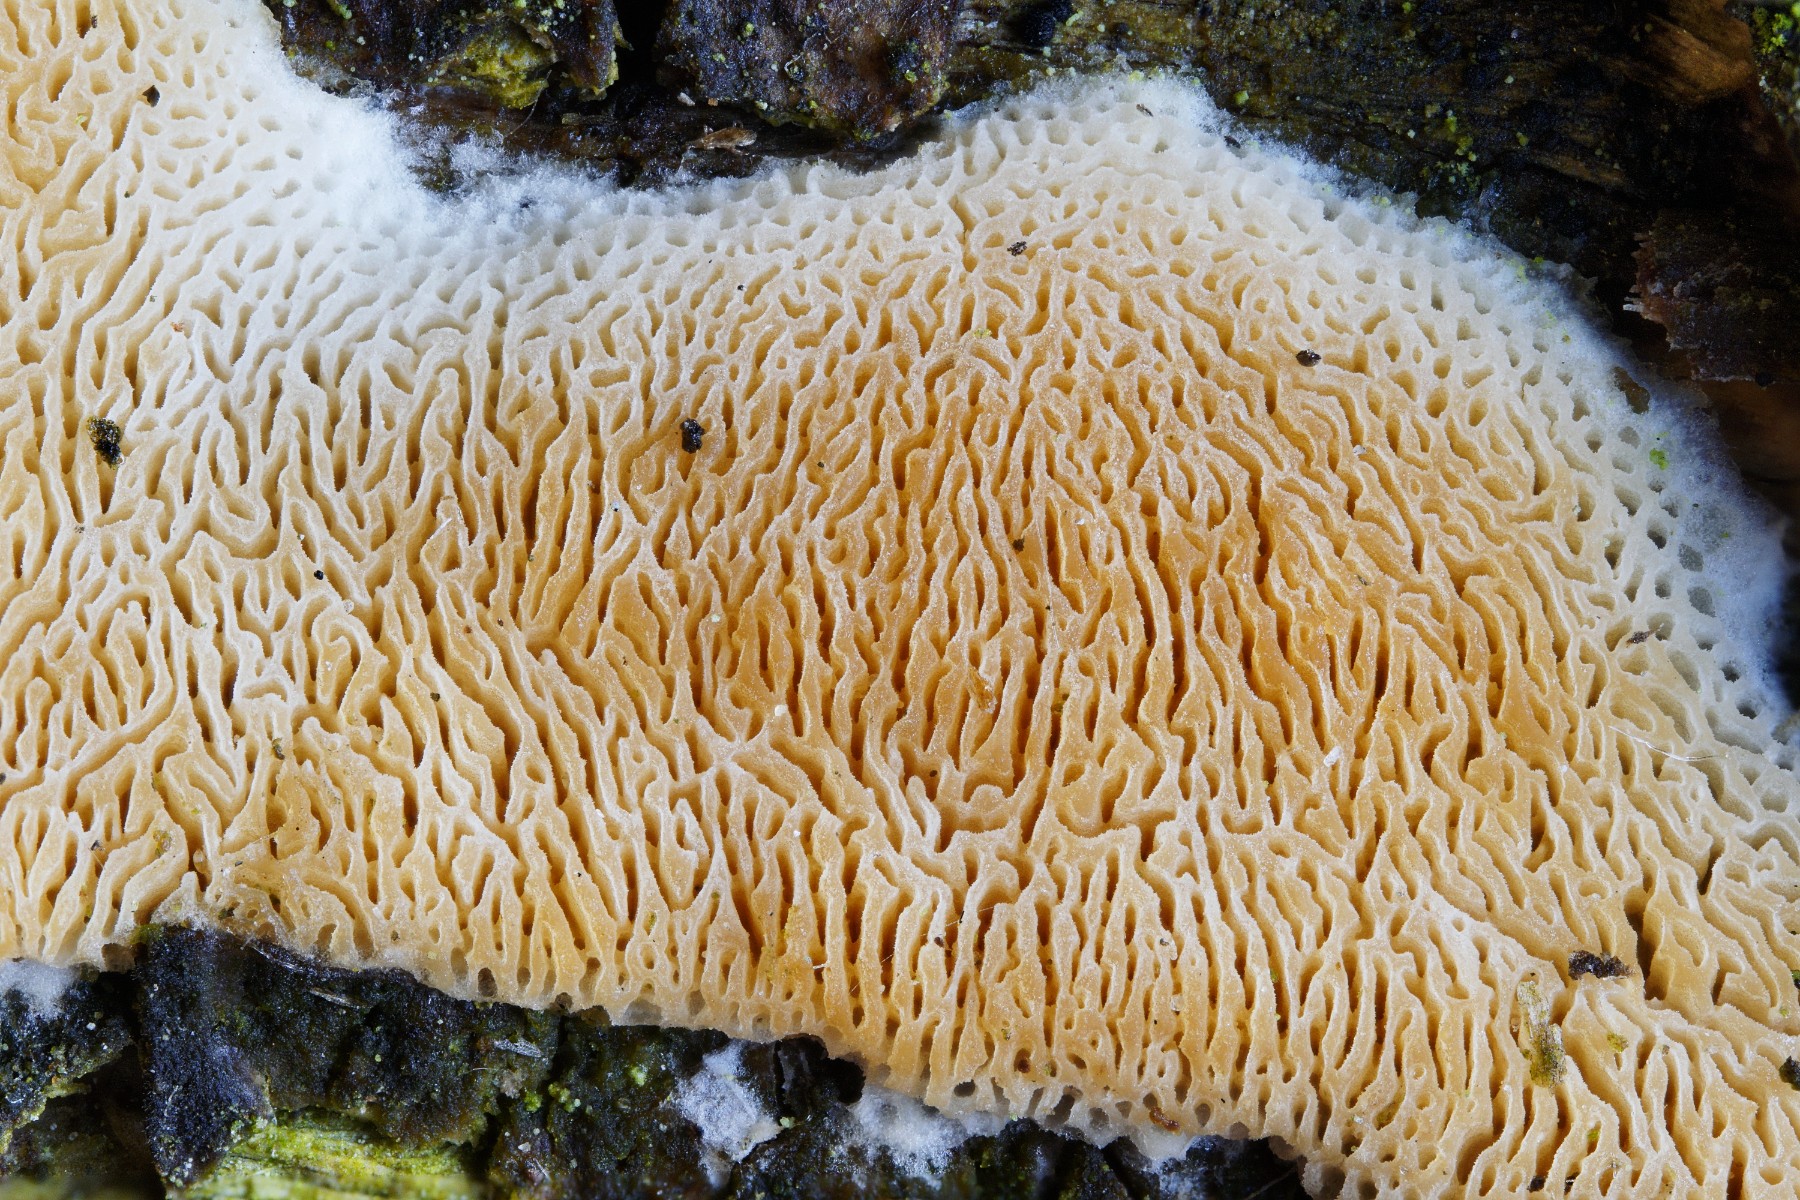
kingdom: Fungi
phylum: Basidiomycota
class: Agaricomycetes
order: Polyporales
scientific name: Polyporales
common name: poresvampordenen
